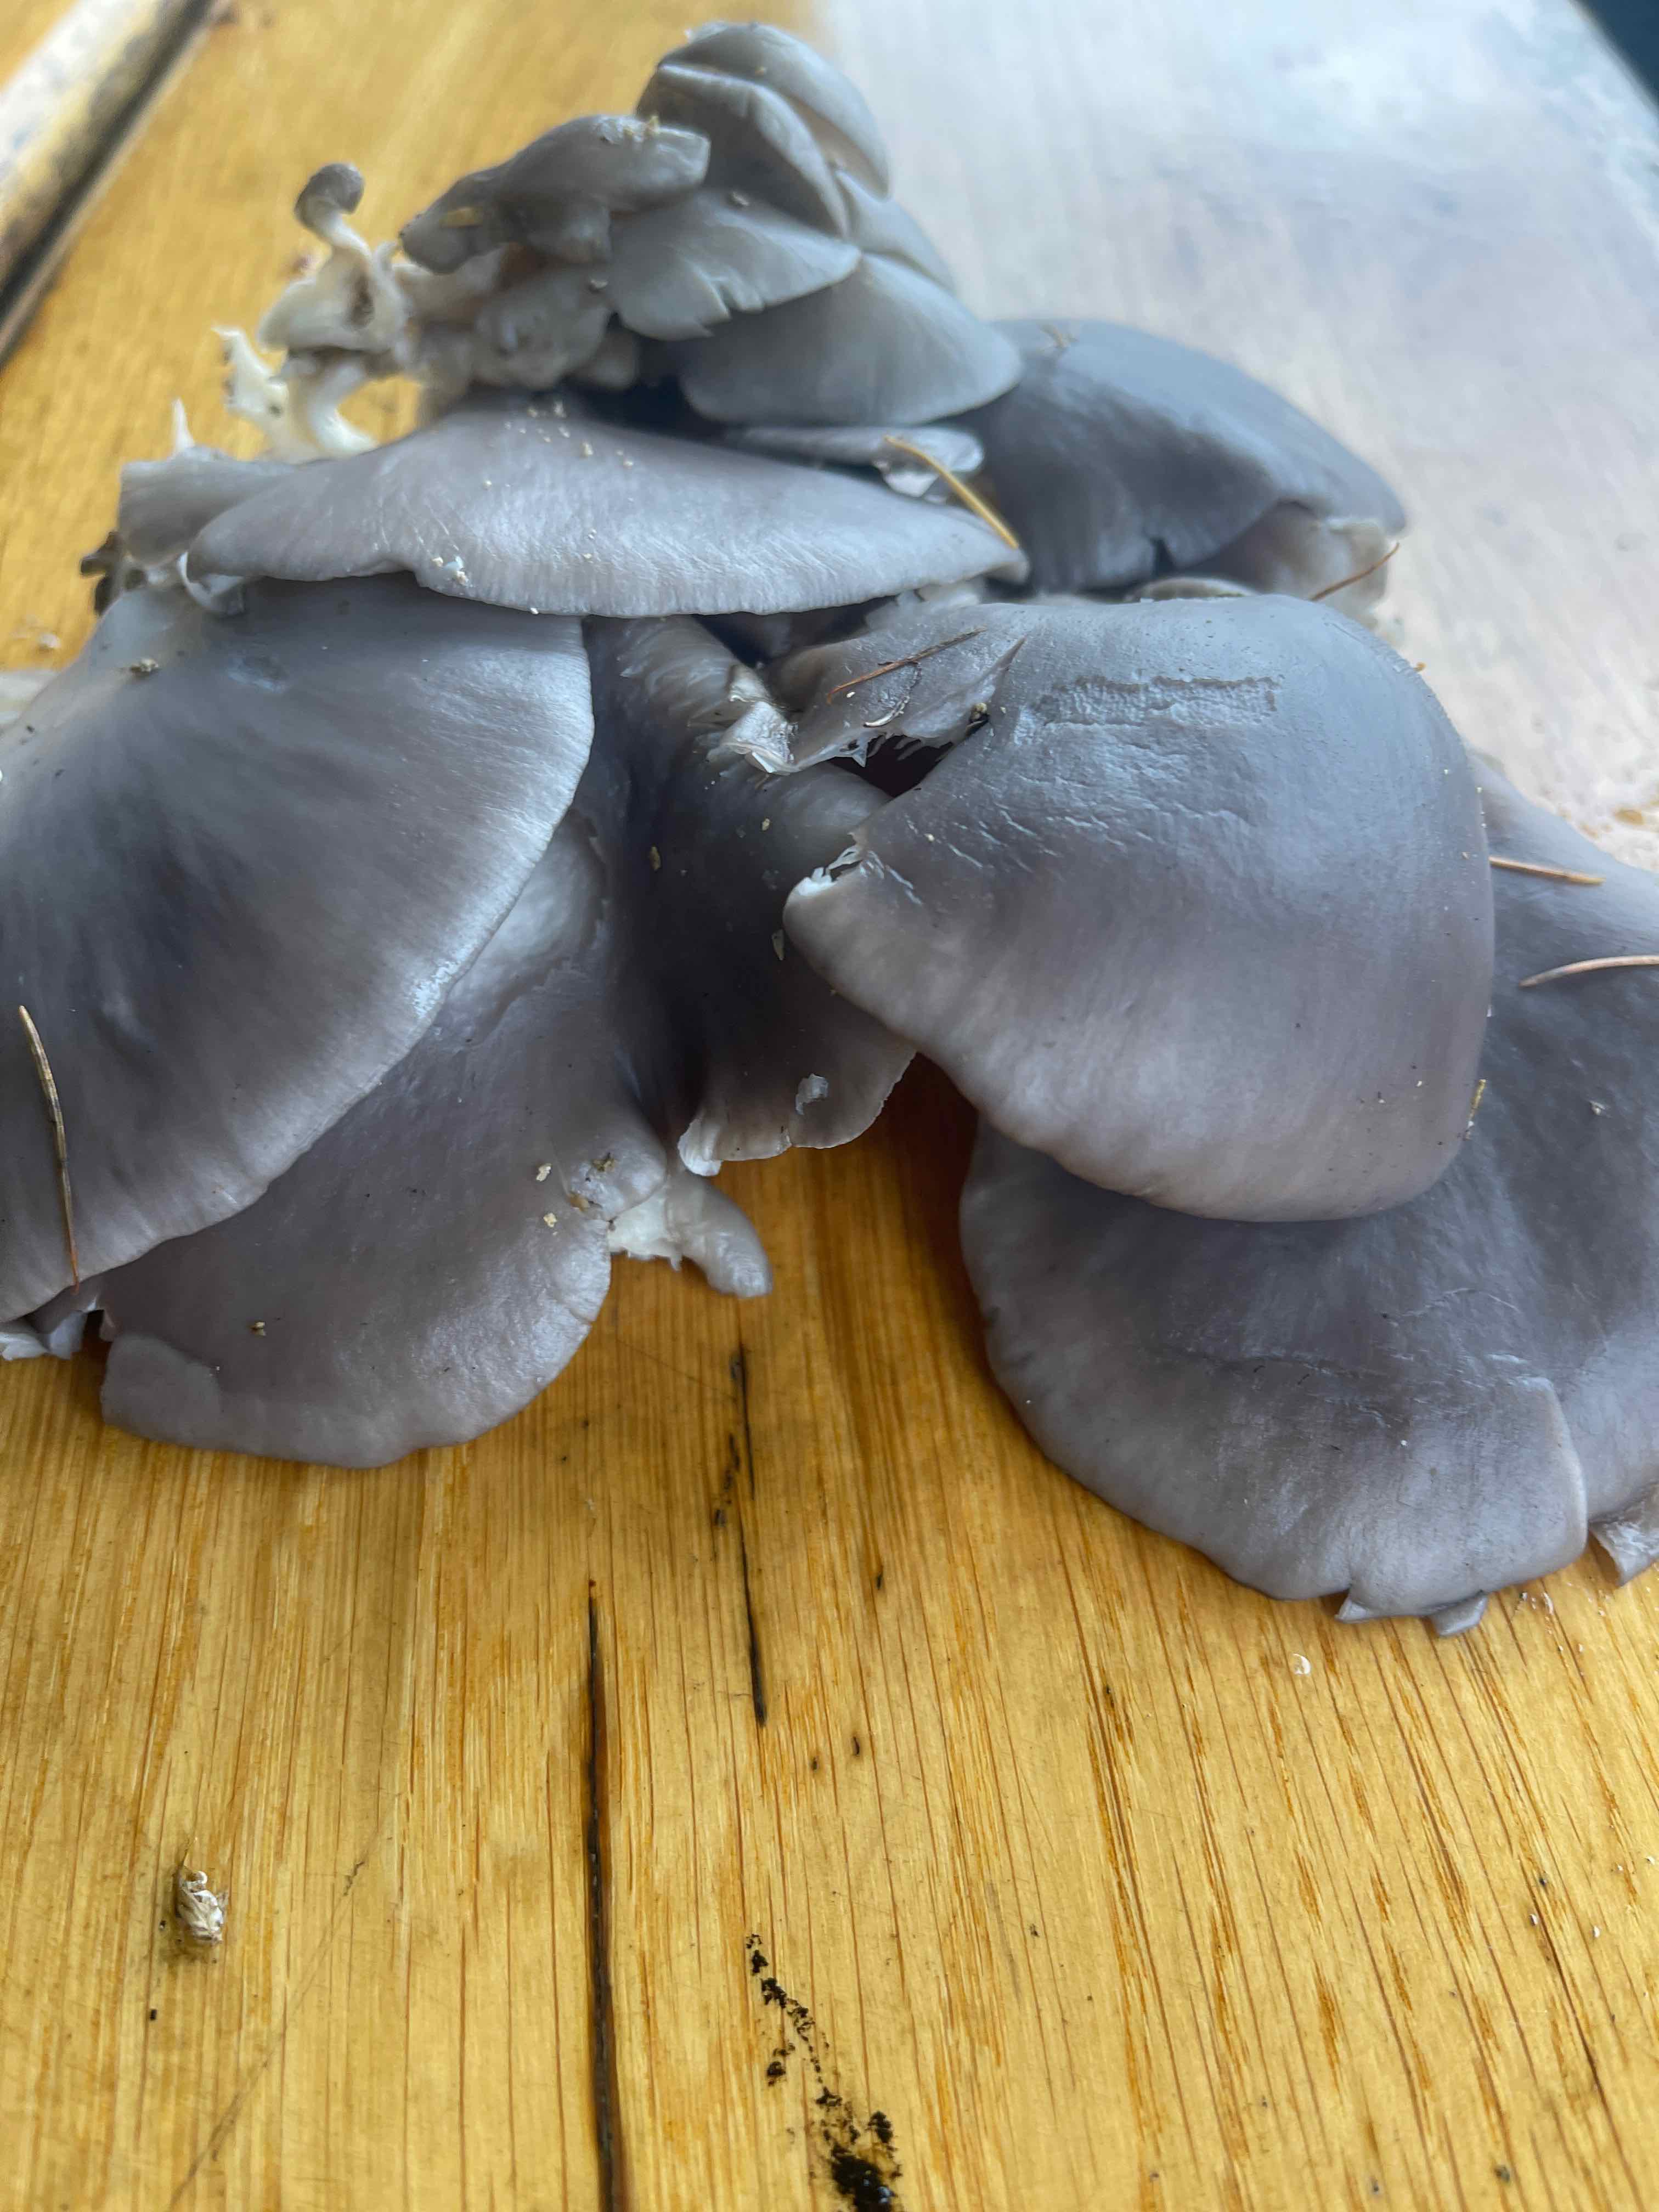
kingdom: Fungi
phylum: Basidiomycota
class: Agaricomycetes
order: Agaricales
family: Pleurotaceae
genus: Pleurotus
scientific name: Pleurotus ostreatus
